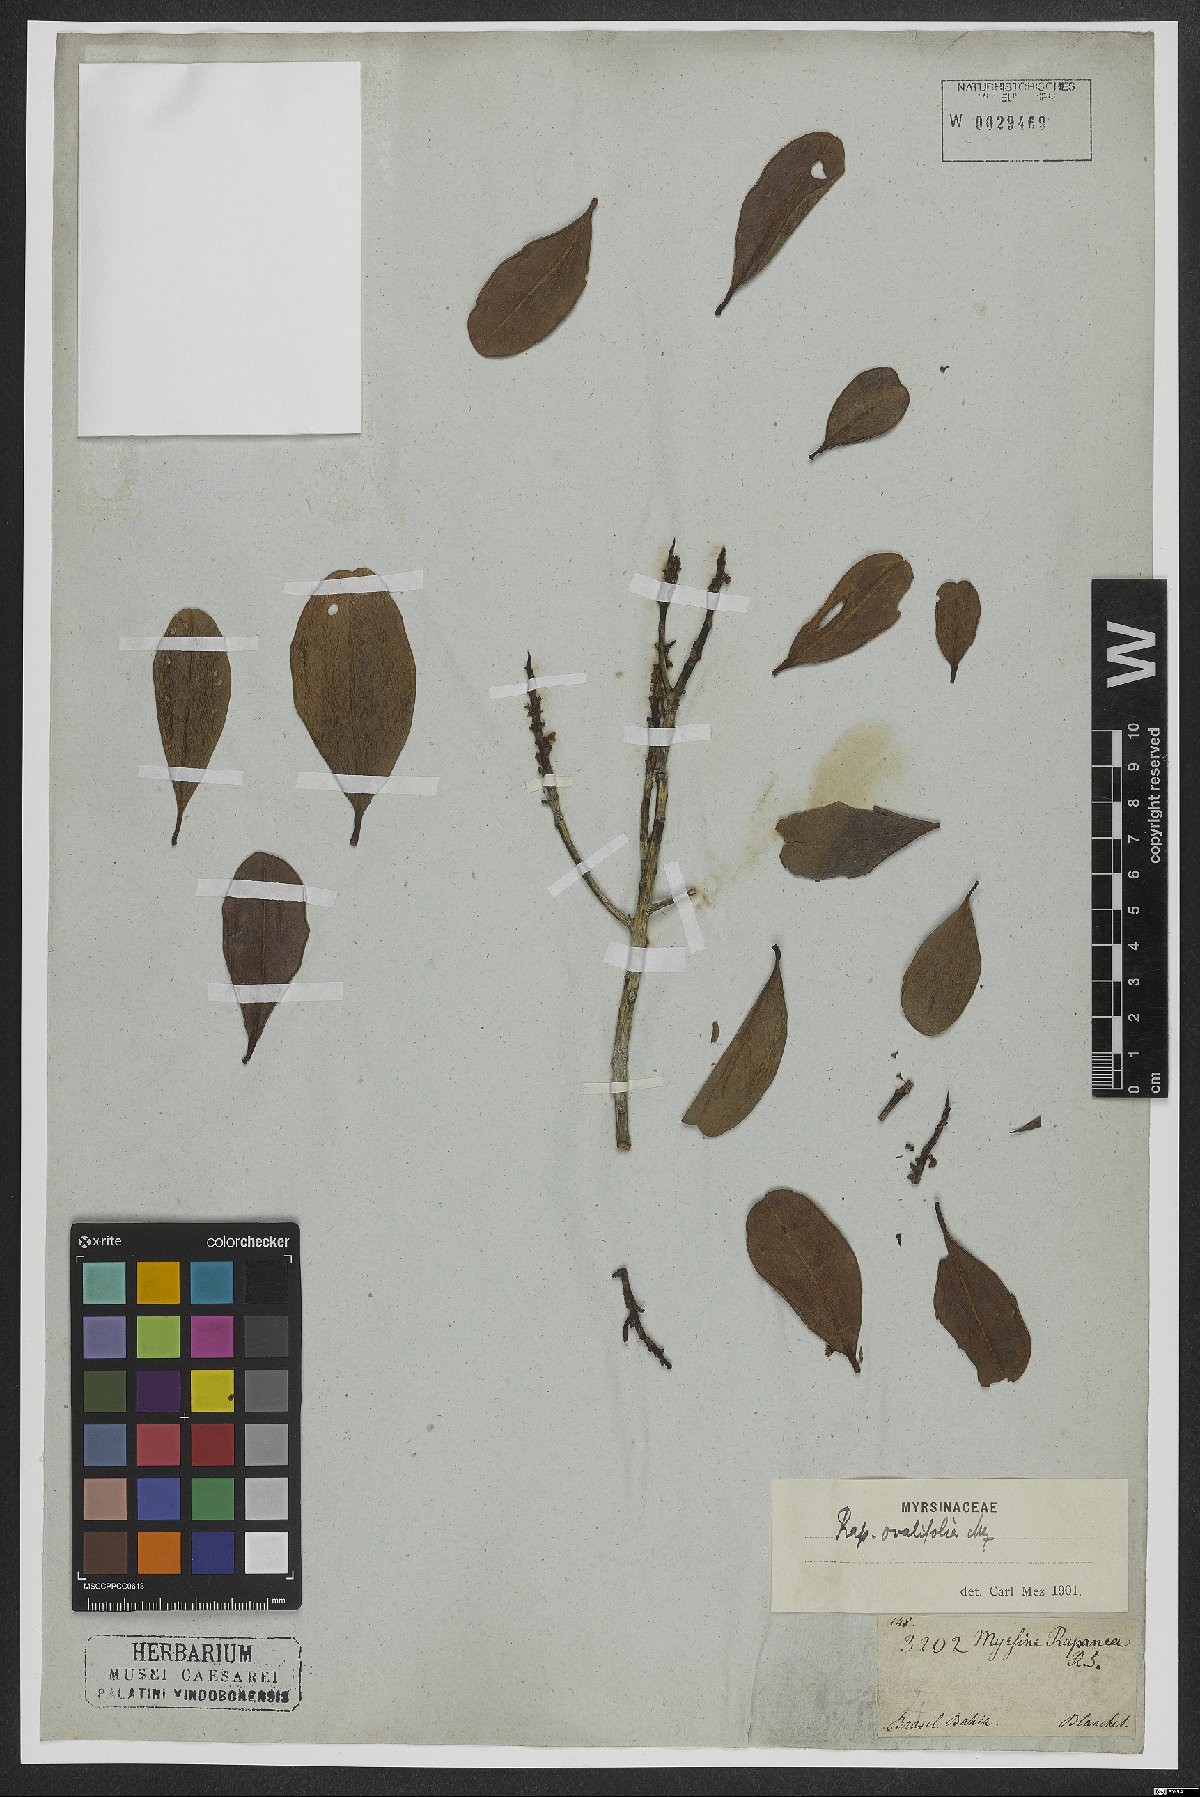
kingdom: Plantae
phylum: Tracheophyta
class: Magnoliopsida
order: Ericales
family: Primulaceae
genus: Myrsine
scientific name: Myrsine miquelii
